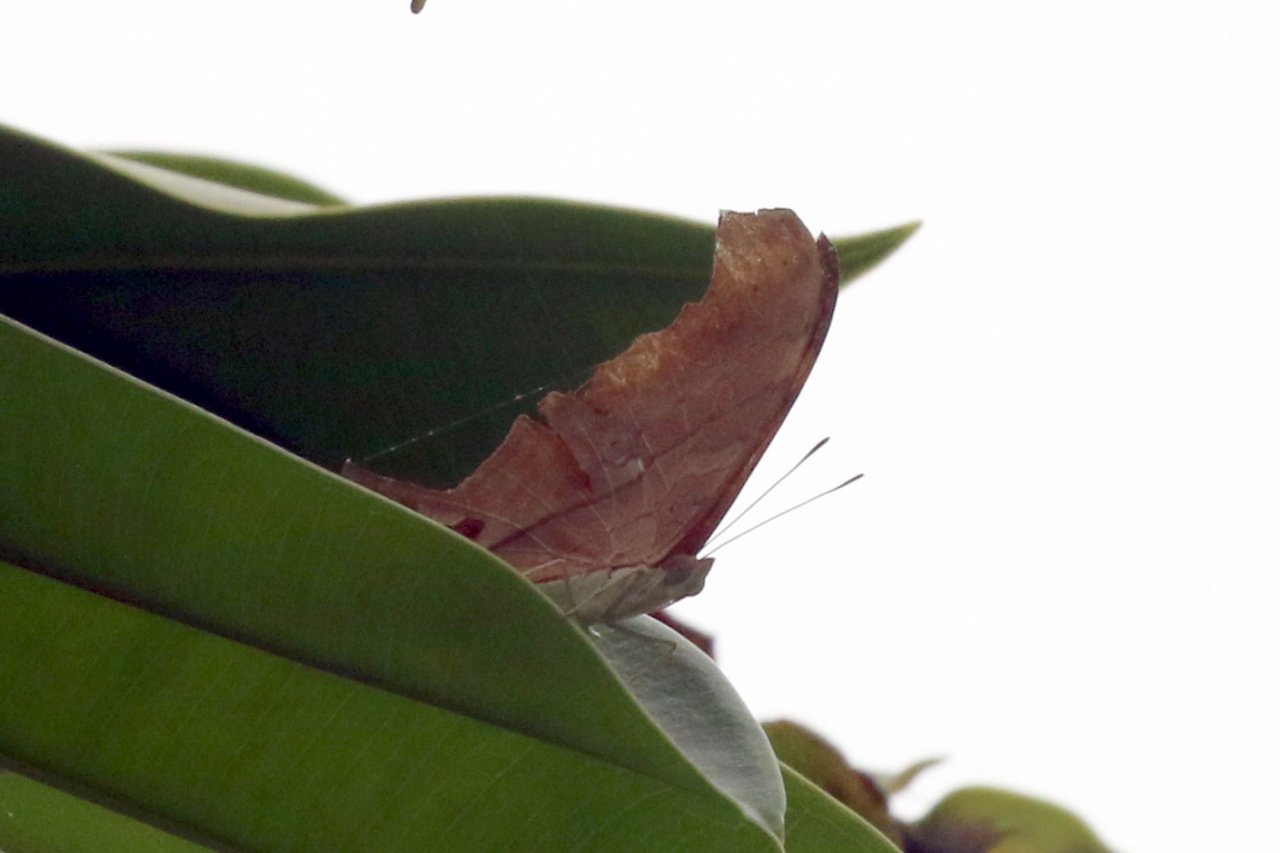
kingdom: Animalia
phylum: Arthropoda
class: Insecta
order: Lepidoptera
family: Nymphalidae
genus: Marpesia
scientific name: Marpesia petreus
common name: Ruddy Daggerwing
